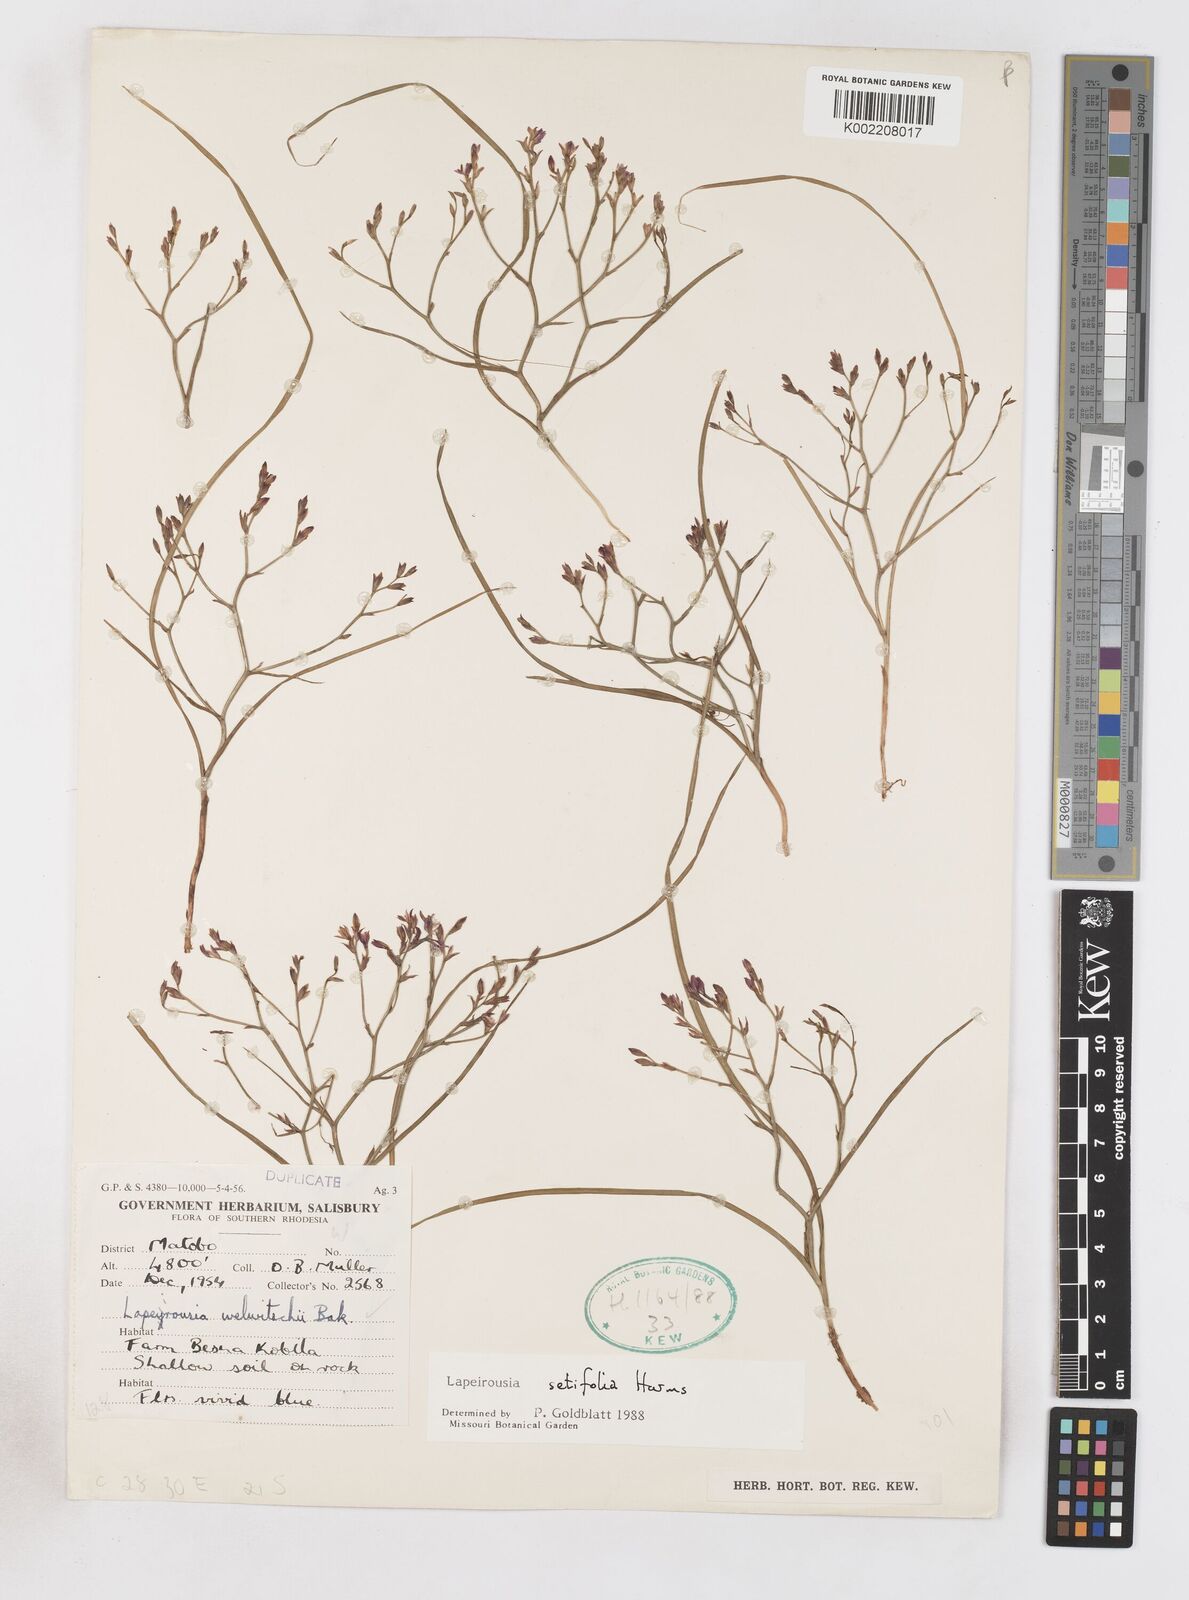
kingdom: Plantae
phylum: Tracheophyta
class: Liliopsida
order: Asparagales
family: Iridaceae
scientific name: Iridaceae
